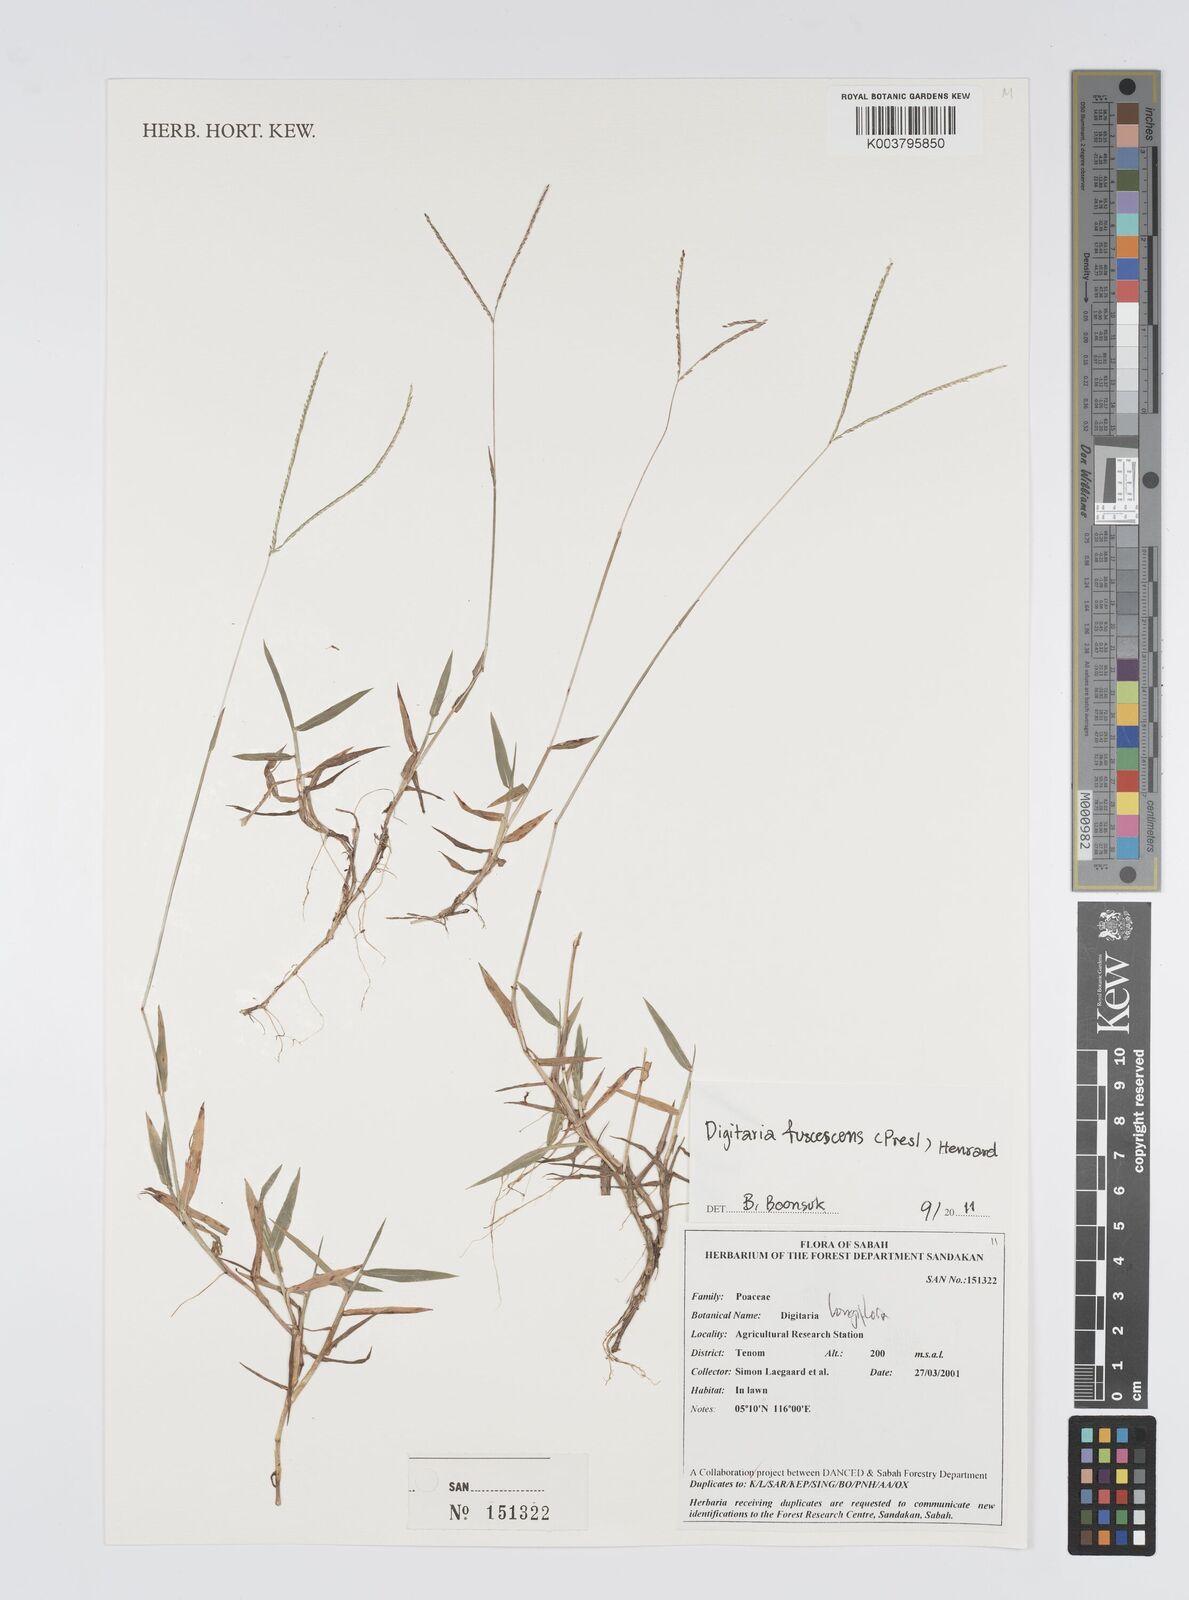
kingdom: Plantae
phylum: Tracheophyta
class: Liliopsida
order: Poales
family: Poaceae
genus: Digitaria
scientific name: Digitaria fuscescens
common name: Yellow crabgrass
